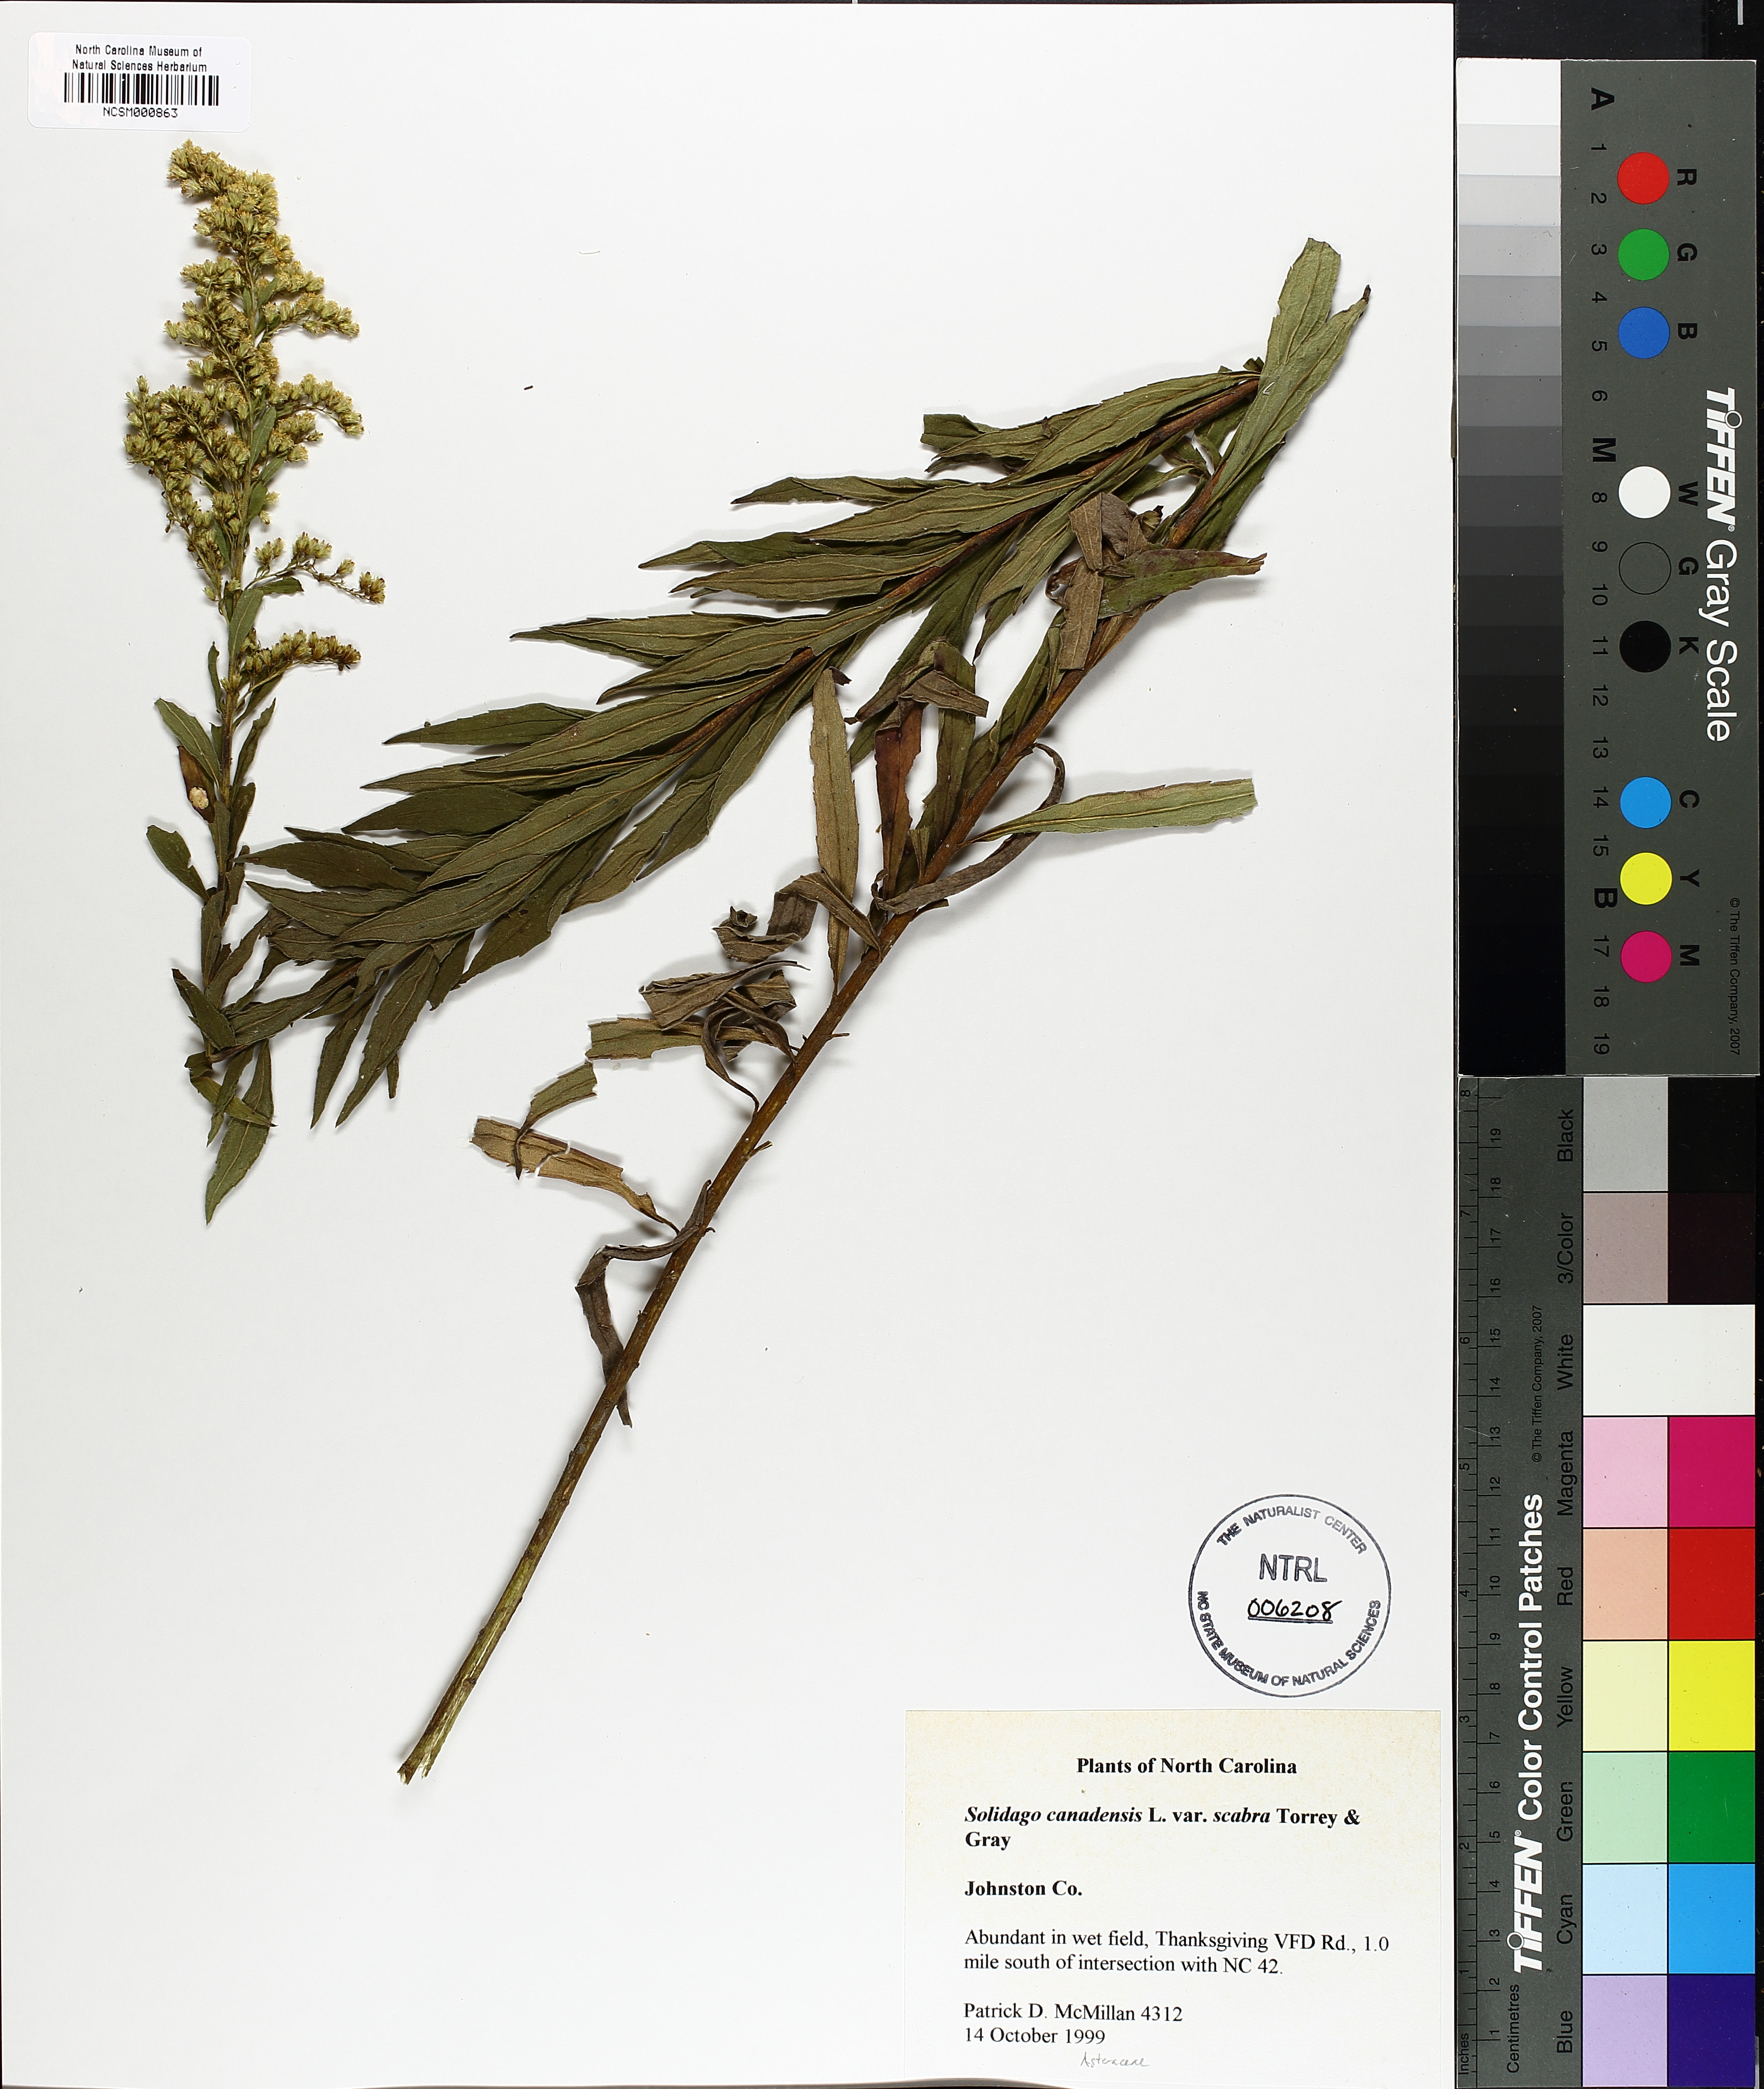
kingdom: Plantae
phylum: Tracheophyta
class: Magnoliopsida
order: Asterales
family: Asteraceae
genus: Solidago
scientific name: Solidago altissima
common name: Late goldenrod
